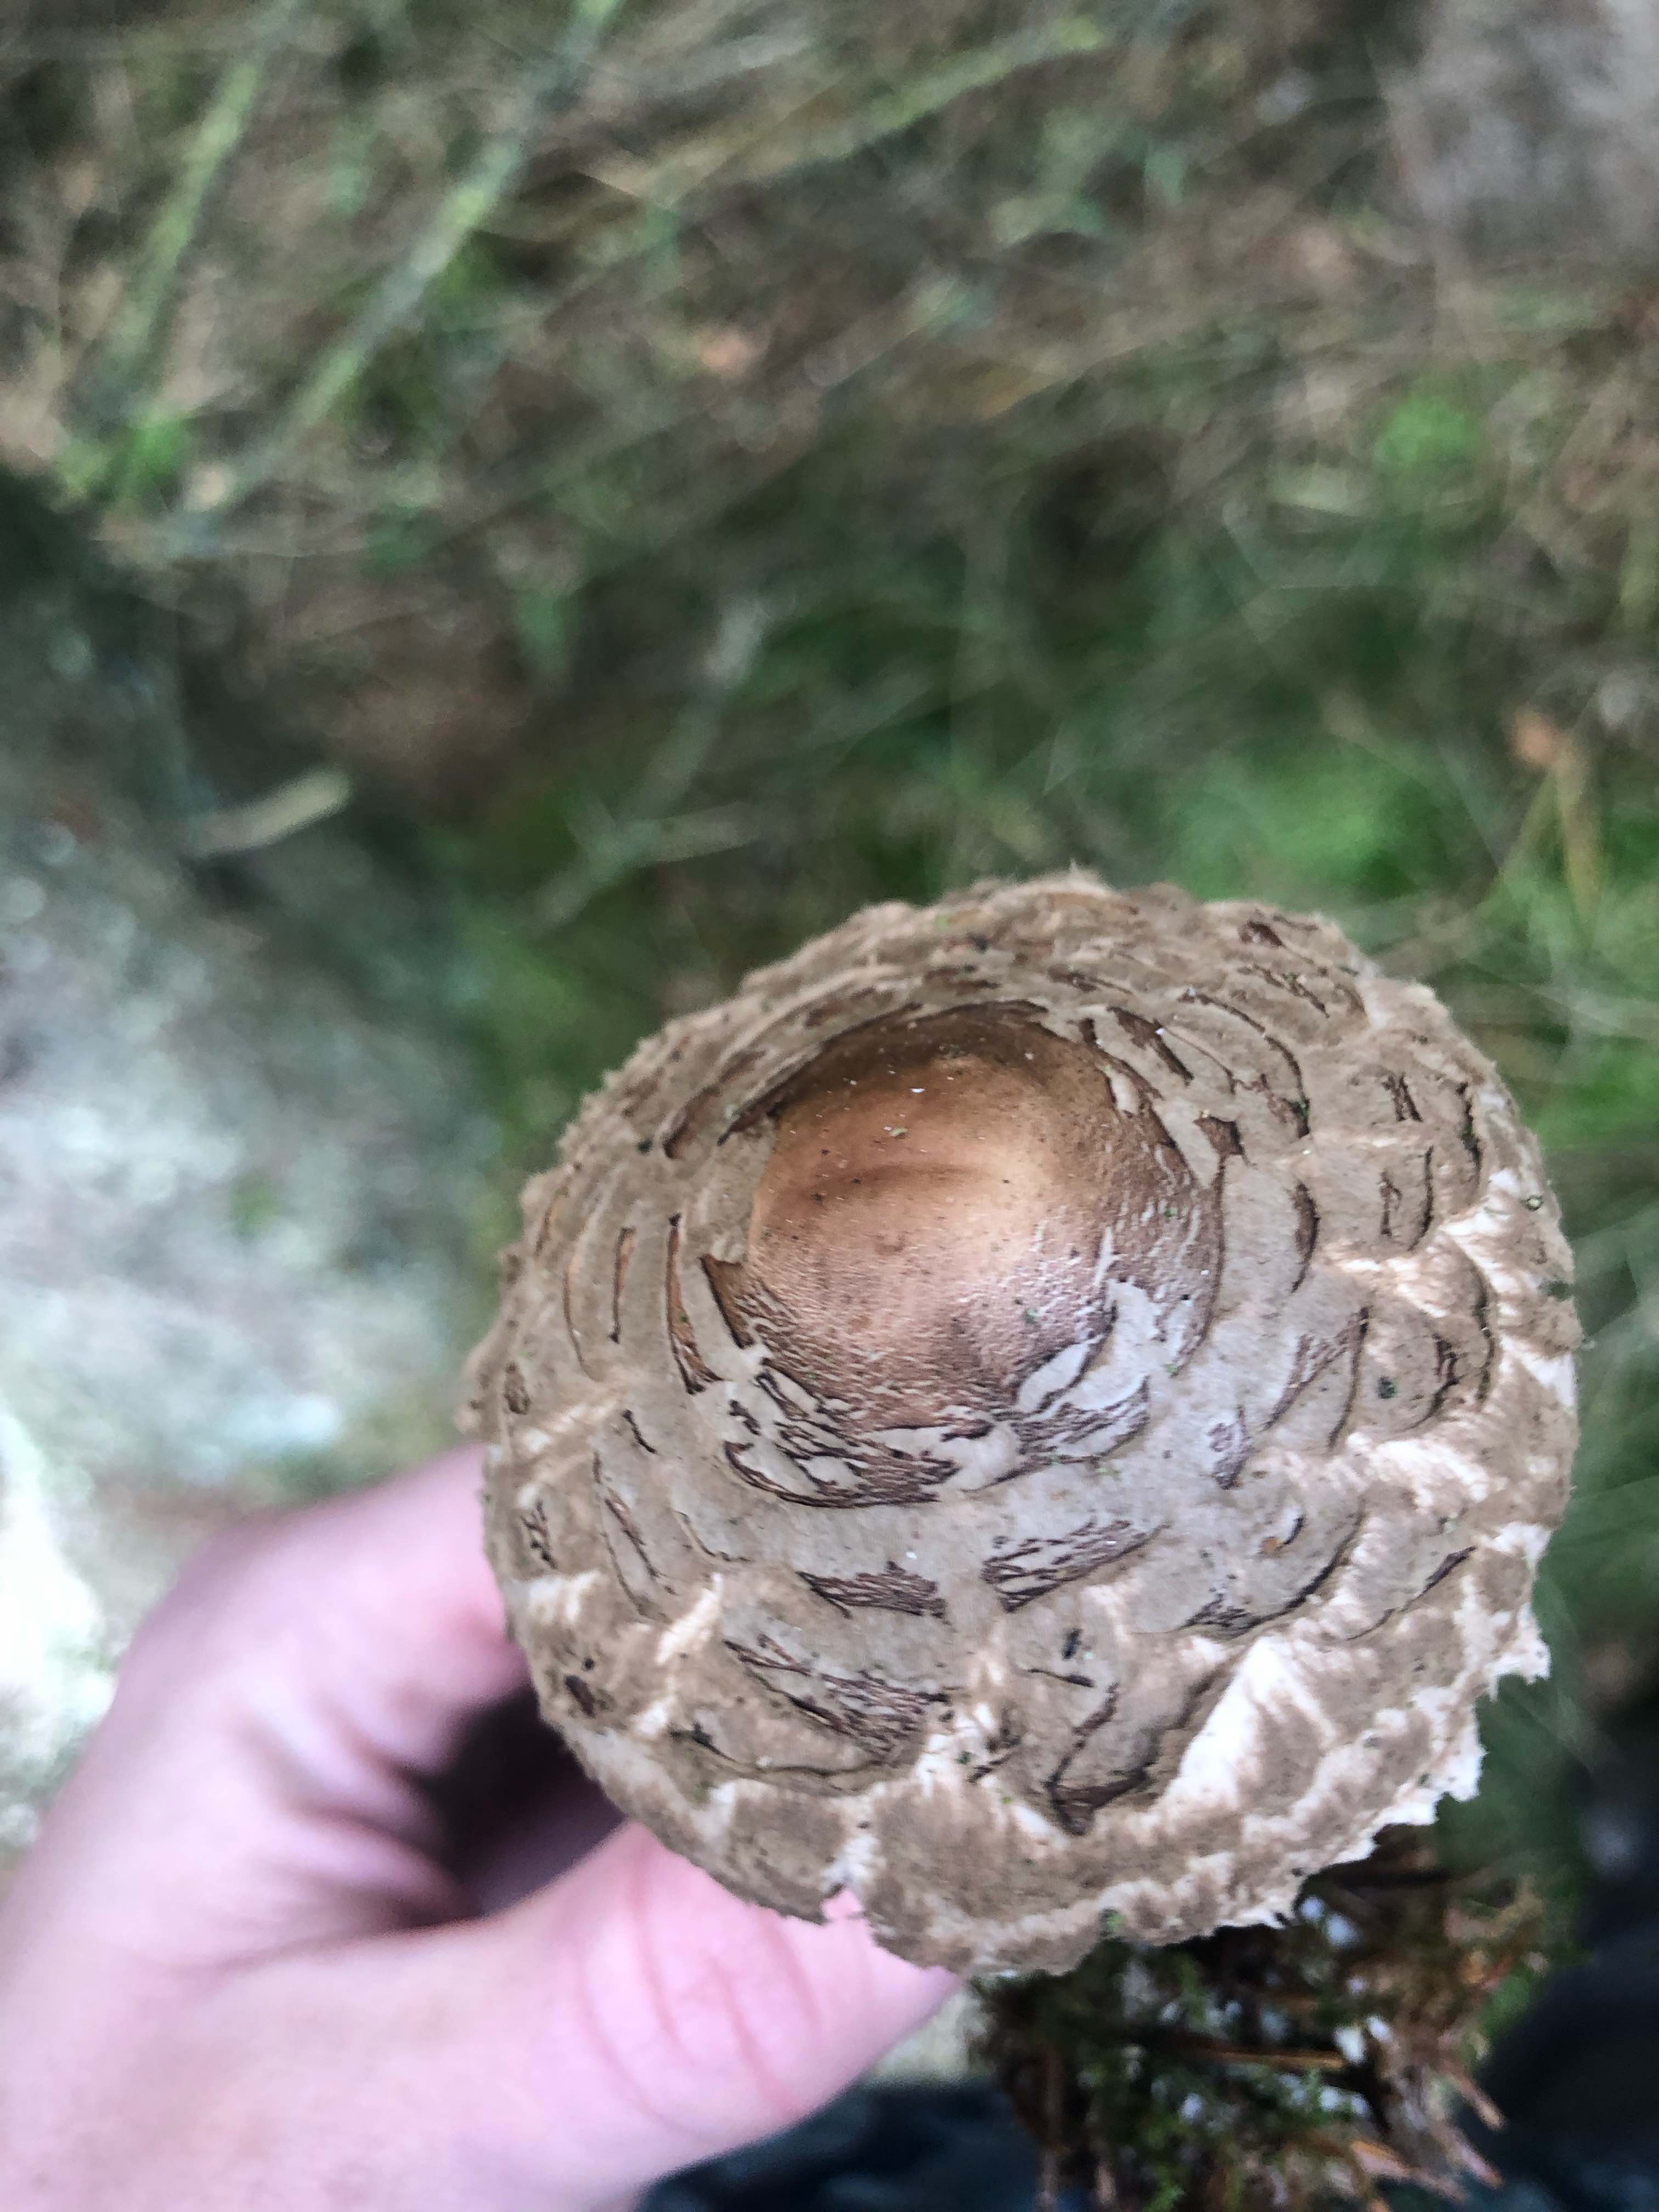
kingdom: Fungi
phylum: Basidiomycota
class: Agaricomycetes
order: Agaricales
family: Agaricaceae
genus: Chlorophyllum
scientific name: Chlorophyllum olivieri
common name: almindelig rabarberhat
